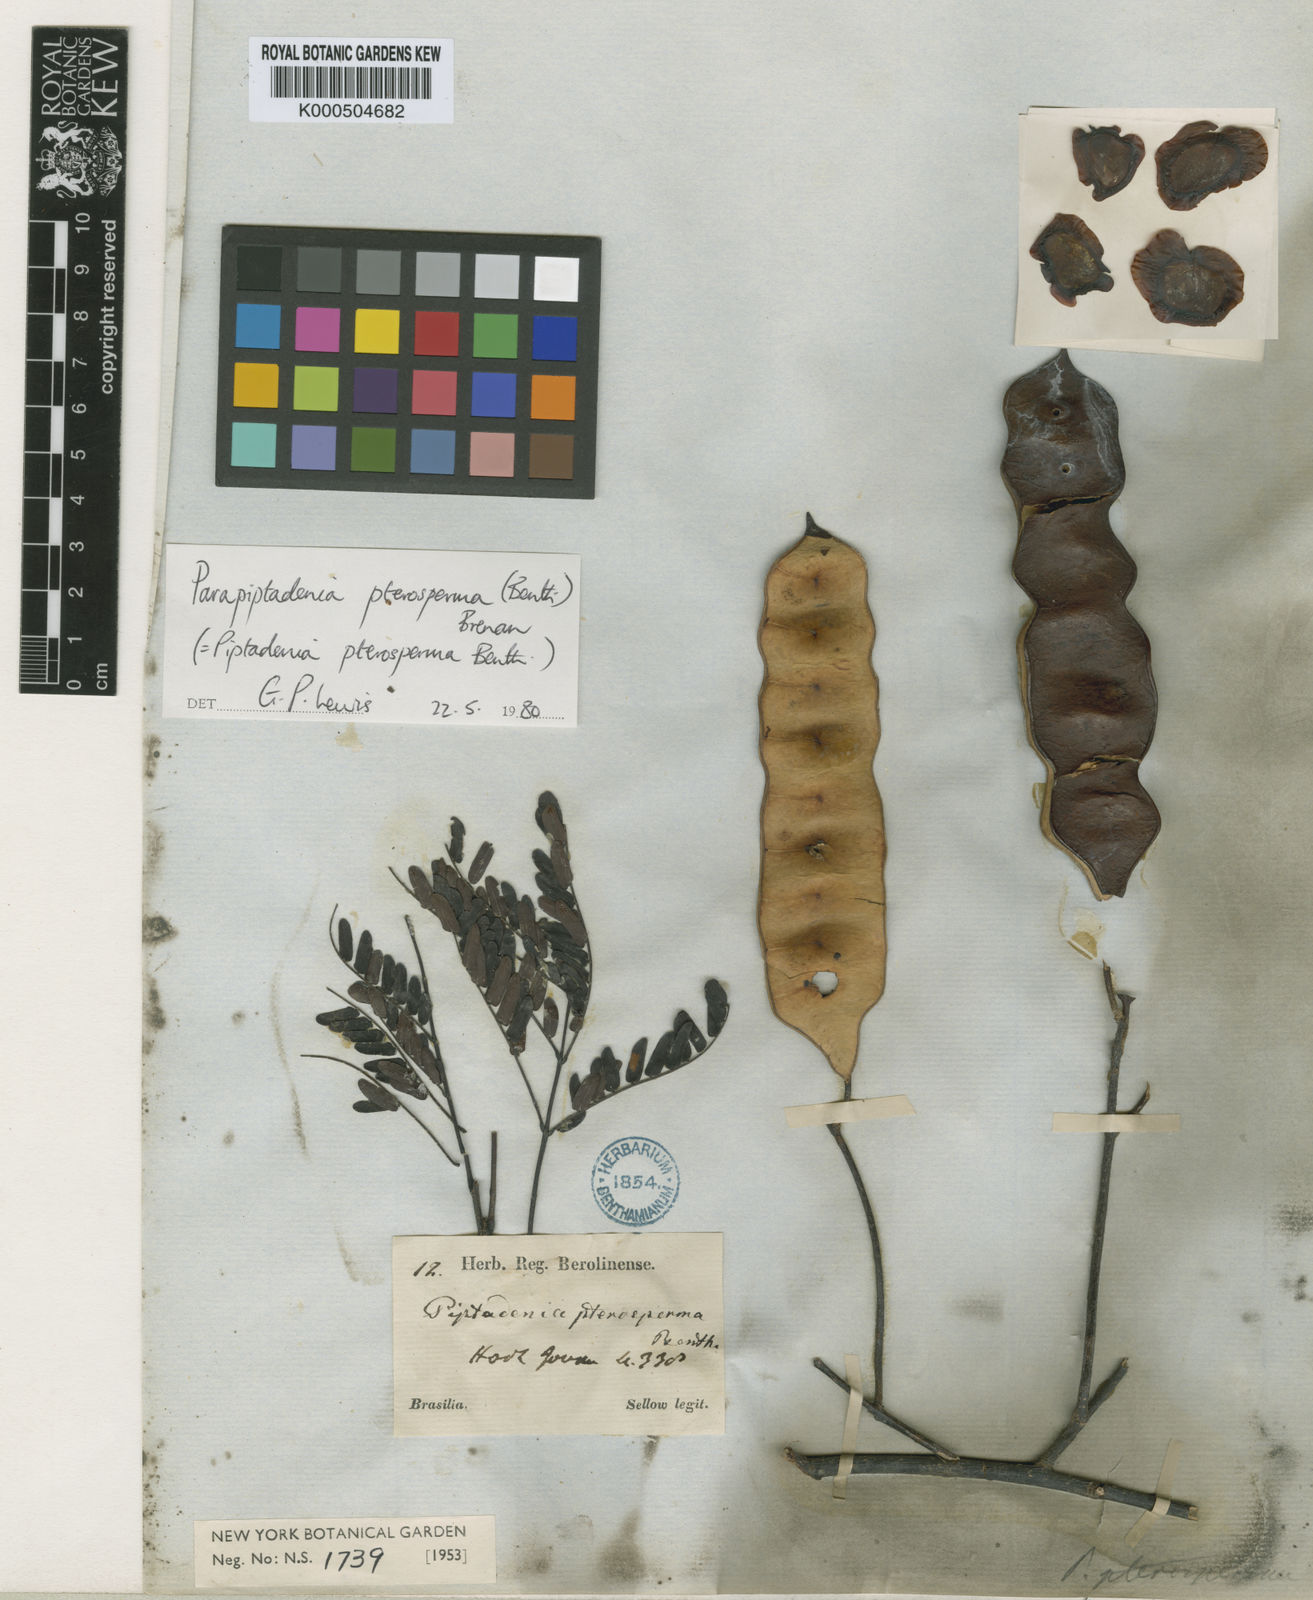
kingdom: Plantae
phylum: Tracheophyta
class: Magnoliopsida
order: Fabales
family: Fabaceae
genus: Parapiptadenia
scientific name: Parapiptadenia rigida
